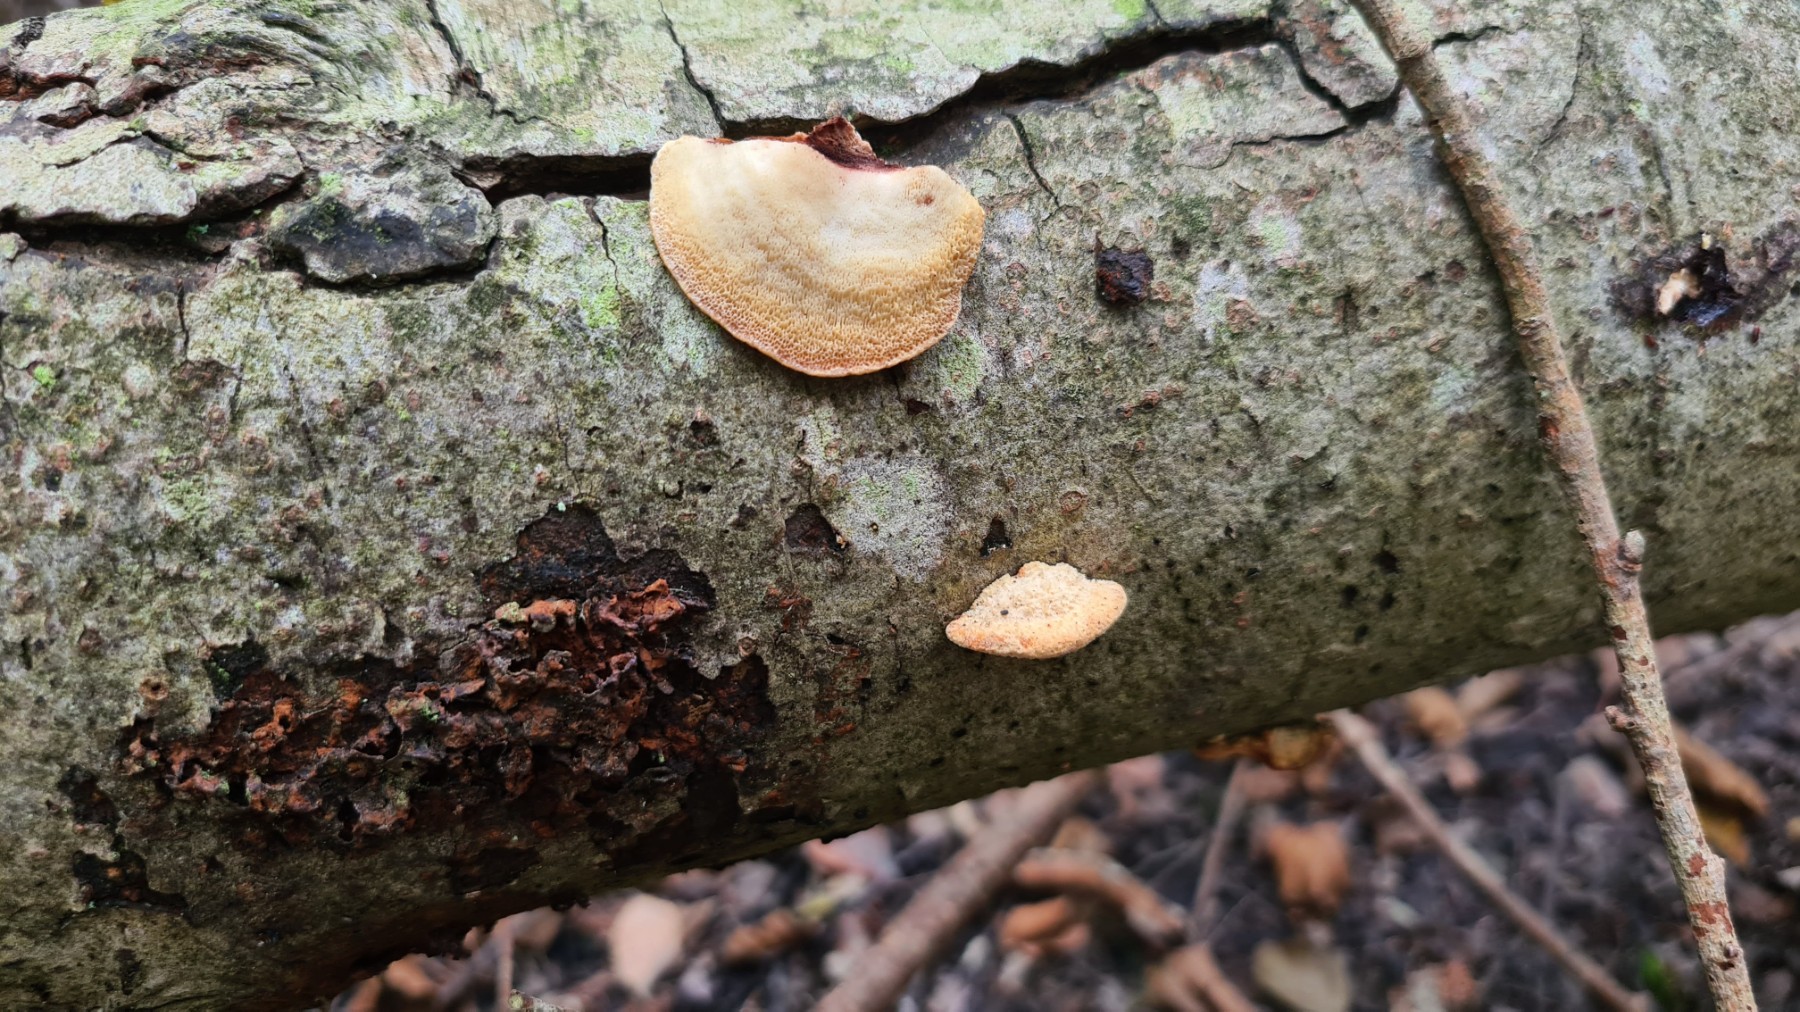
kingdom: Fungi
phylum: Basidiomycota
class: Agaricomycetes
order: Polyporales
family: Steccherinaceae
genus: Antrodiella
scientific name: Antrodiella serpula
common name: gulrandet elastikporesvamp
